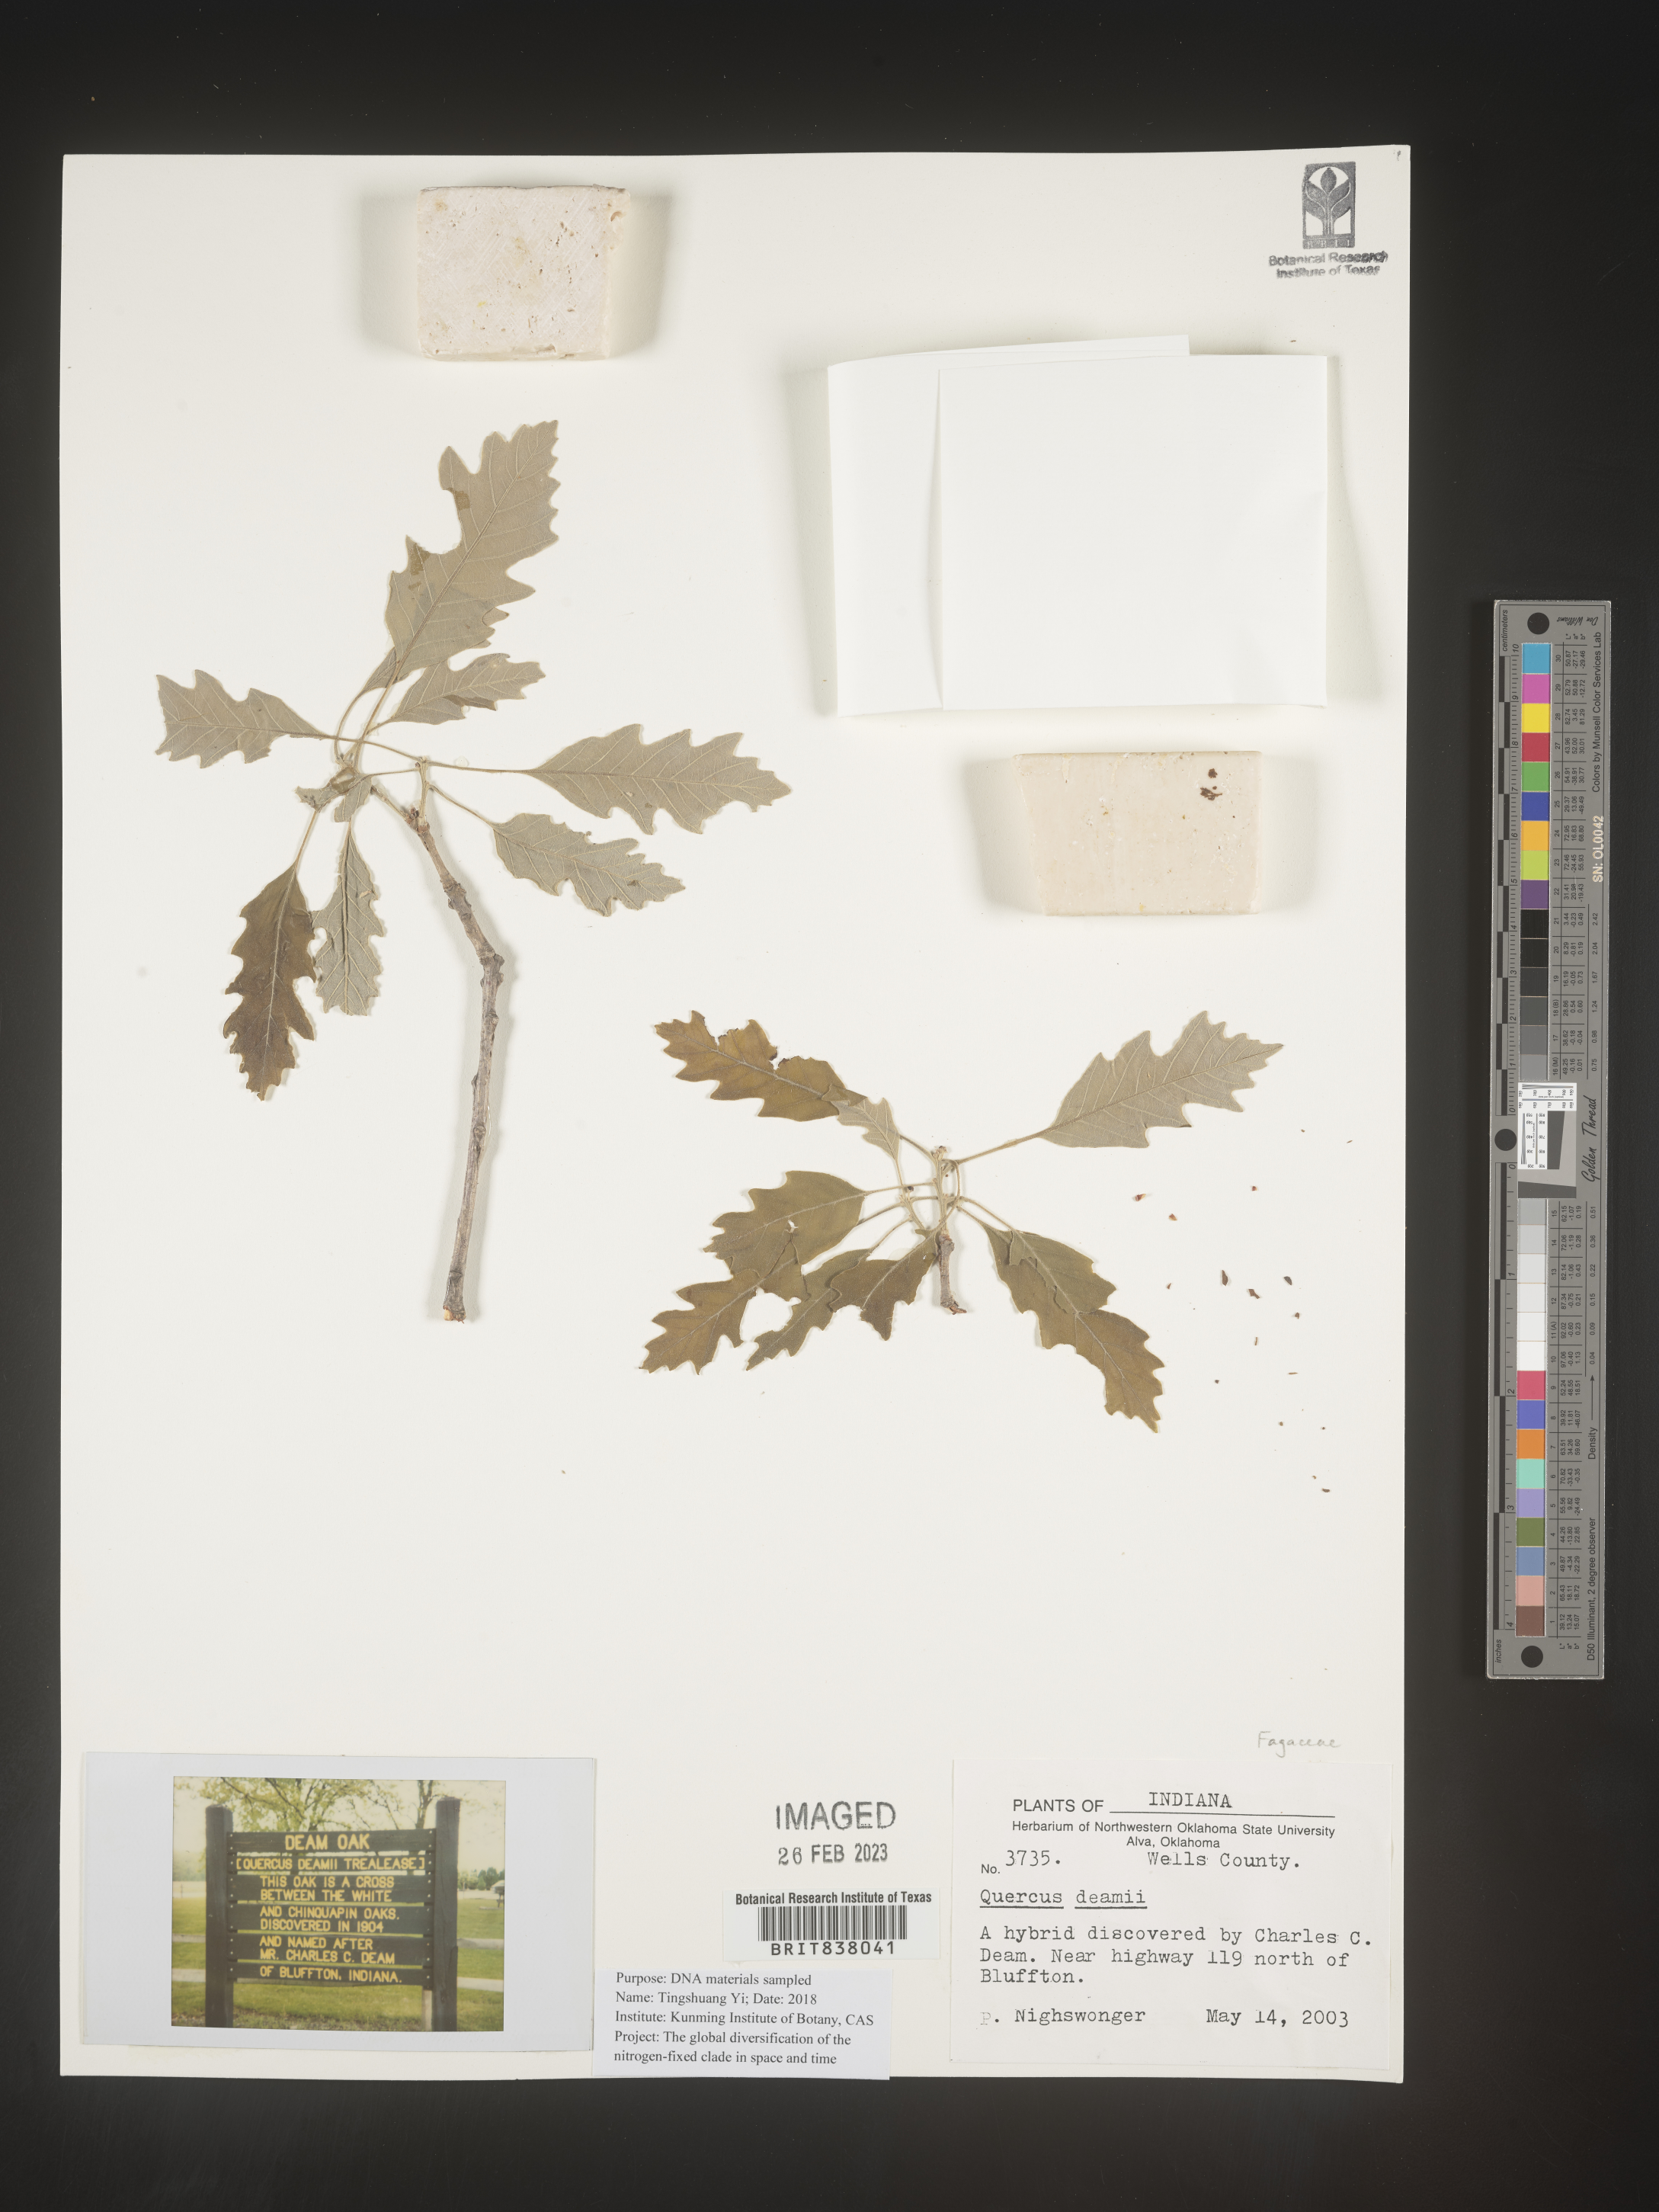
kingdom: Plantae
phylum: Tracheophyta
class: Magnoliopsida
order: Fagales
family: Fagaceae
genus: Quercus
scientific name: Quercus
